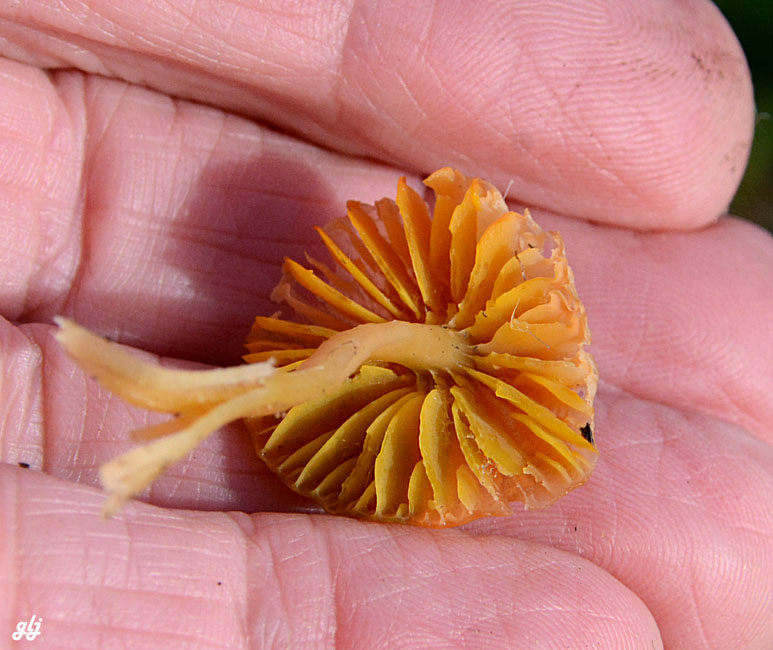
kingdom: Fungi
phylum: Basidiomycota
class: Agaricomycetes
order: Agaricales
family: Hygrophoraceae
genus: Gliophorus
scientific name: Gliophorus
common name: vokshat
